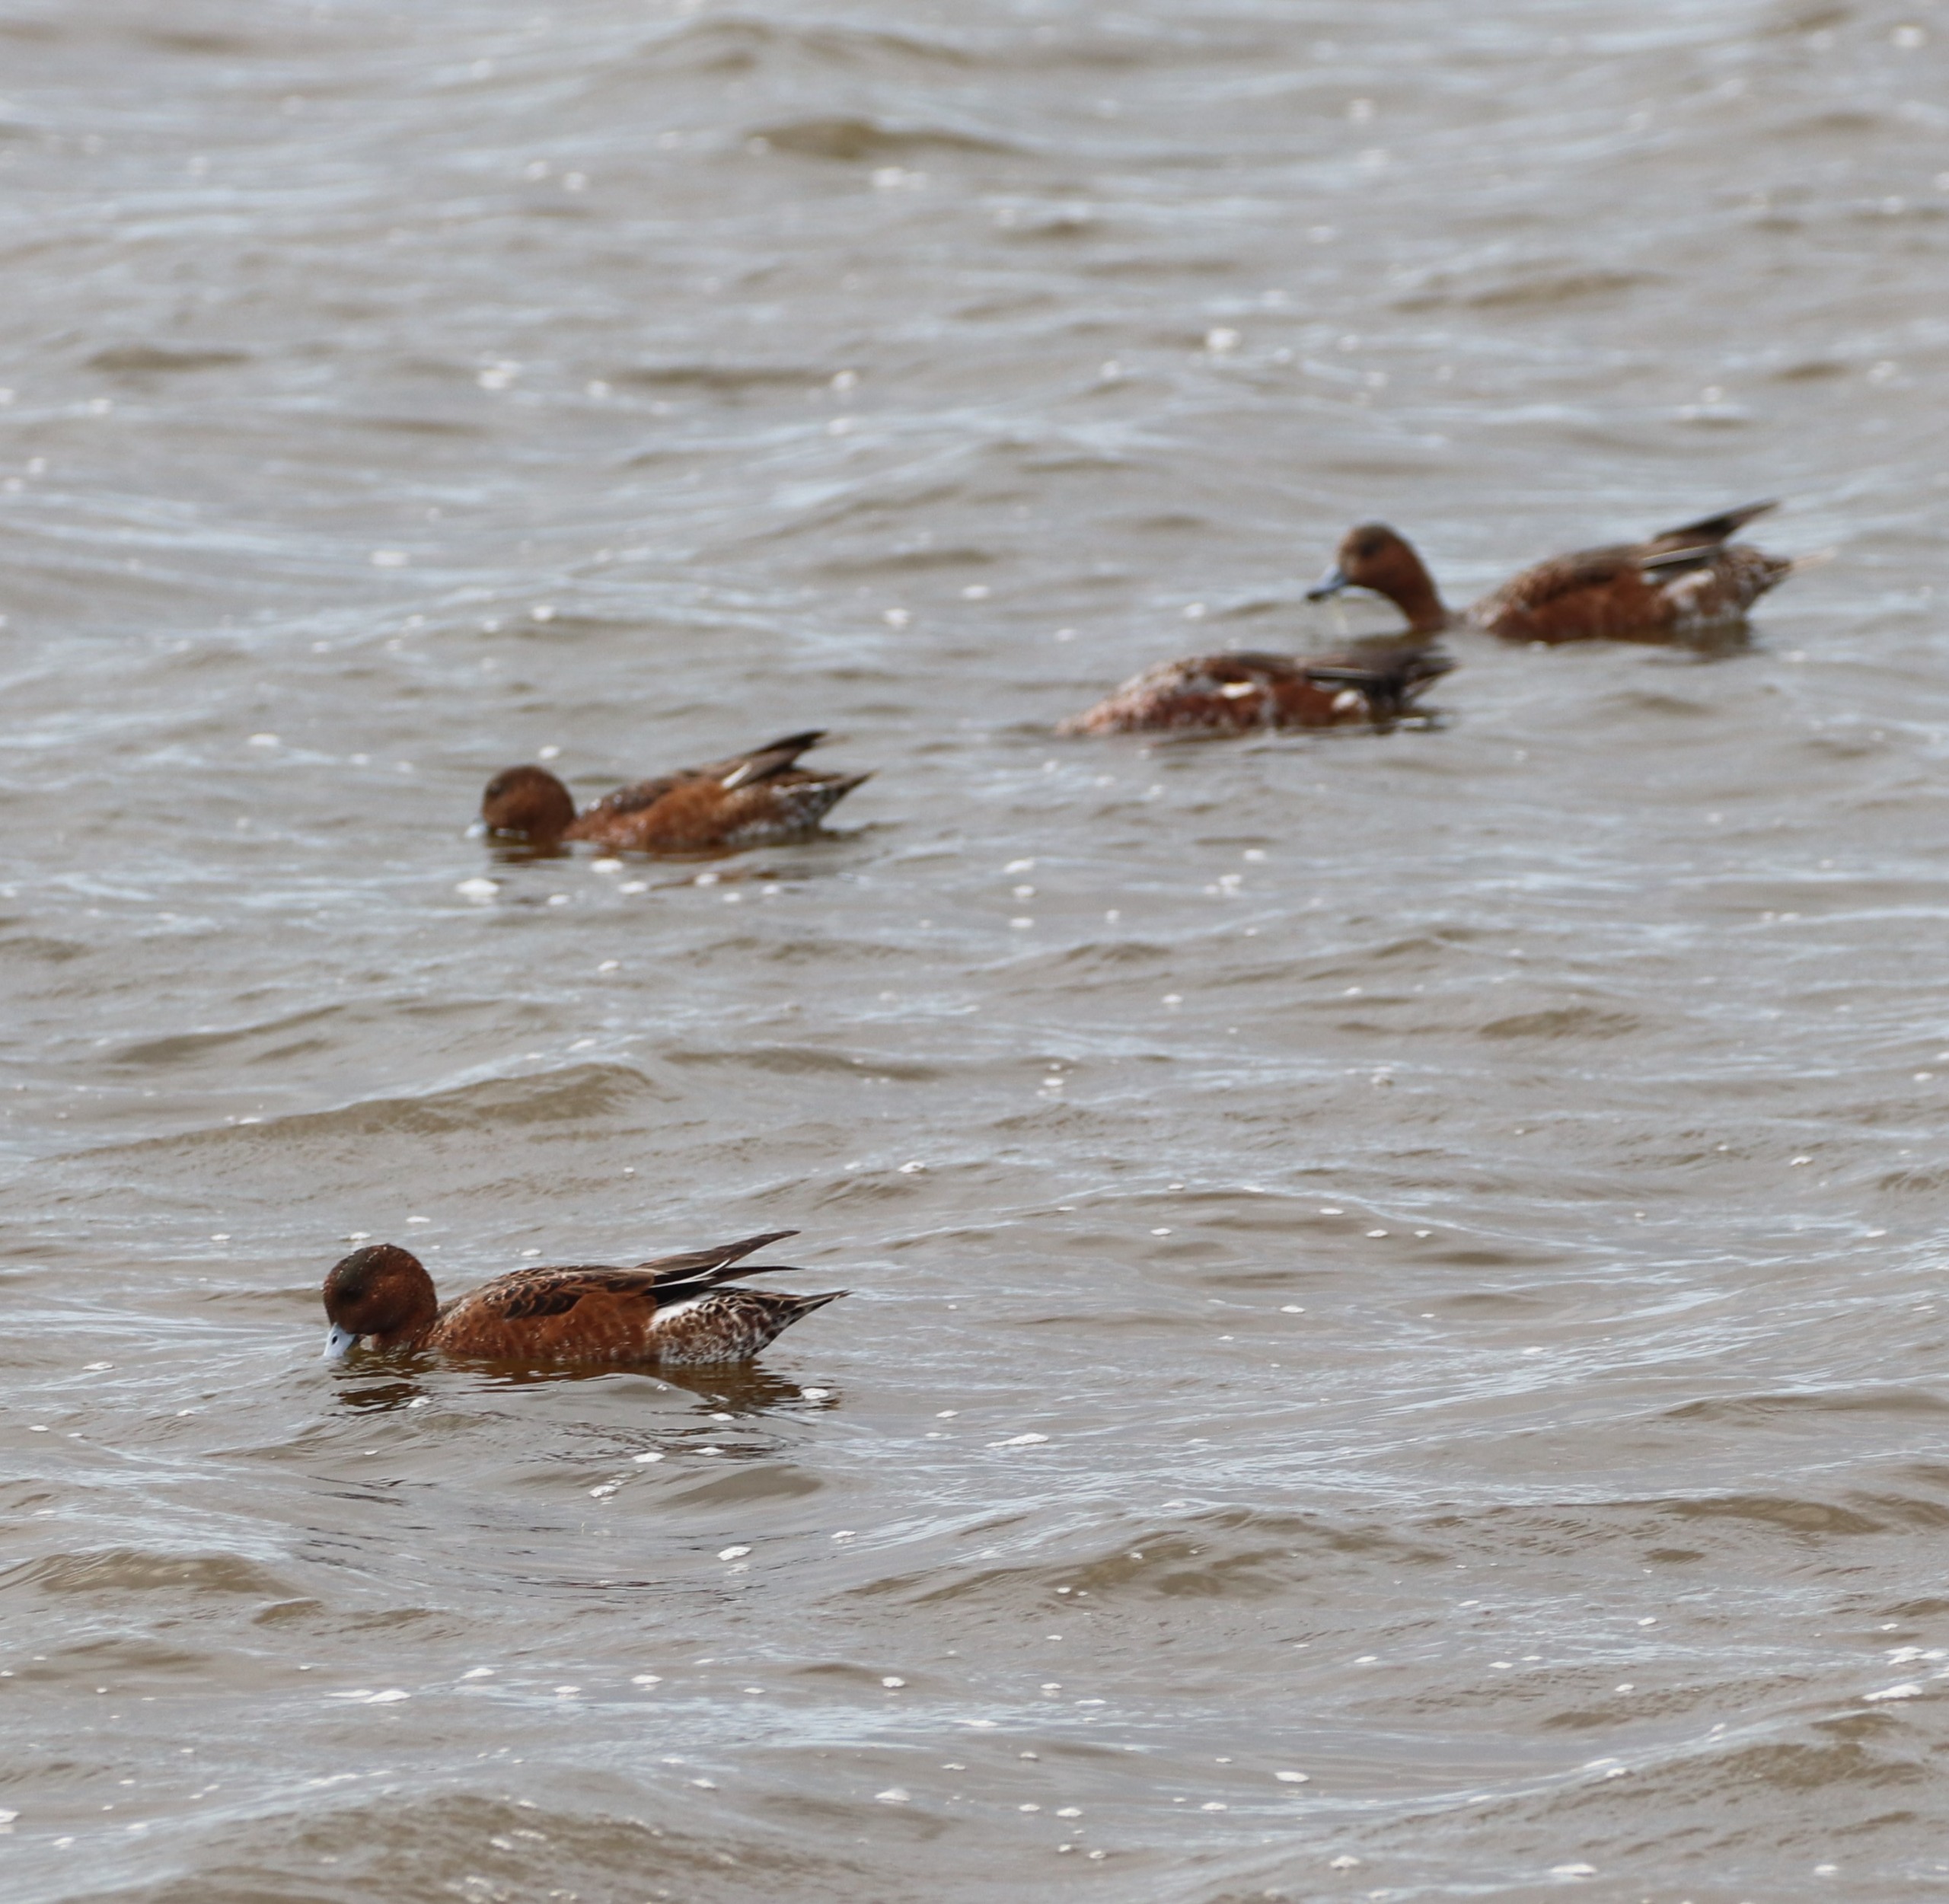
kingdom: Animalia
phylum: Chordata
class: Aves
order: Anseriformes
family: Anatidae
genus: Mareca
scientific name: Mareca penelope
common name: Pibeand
